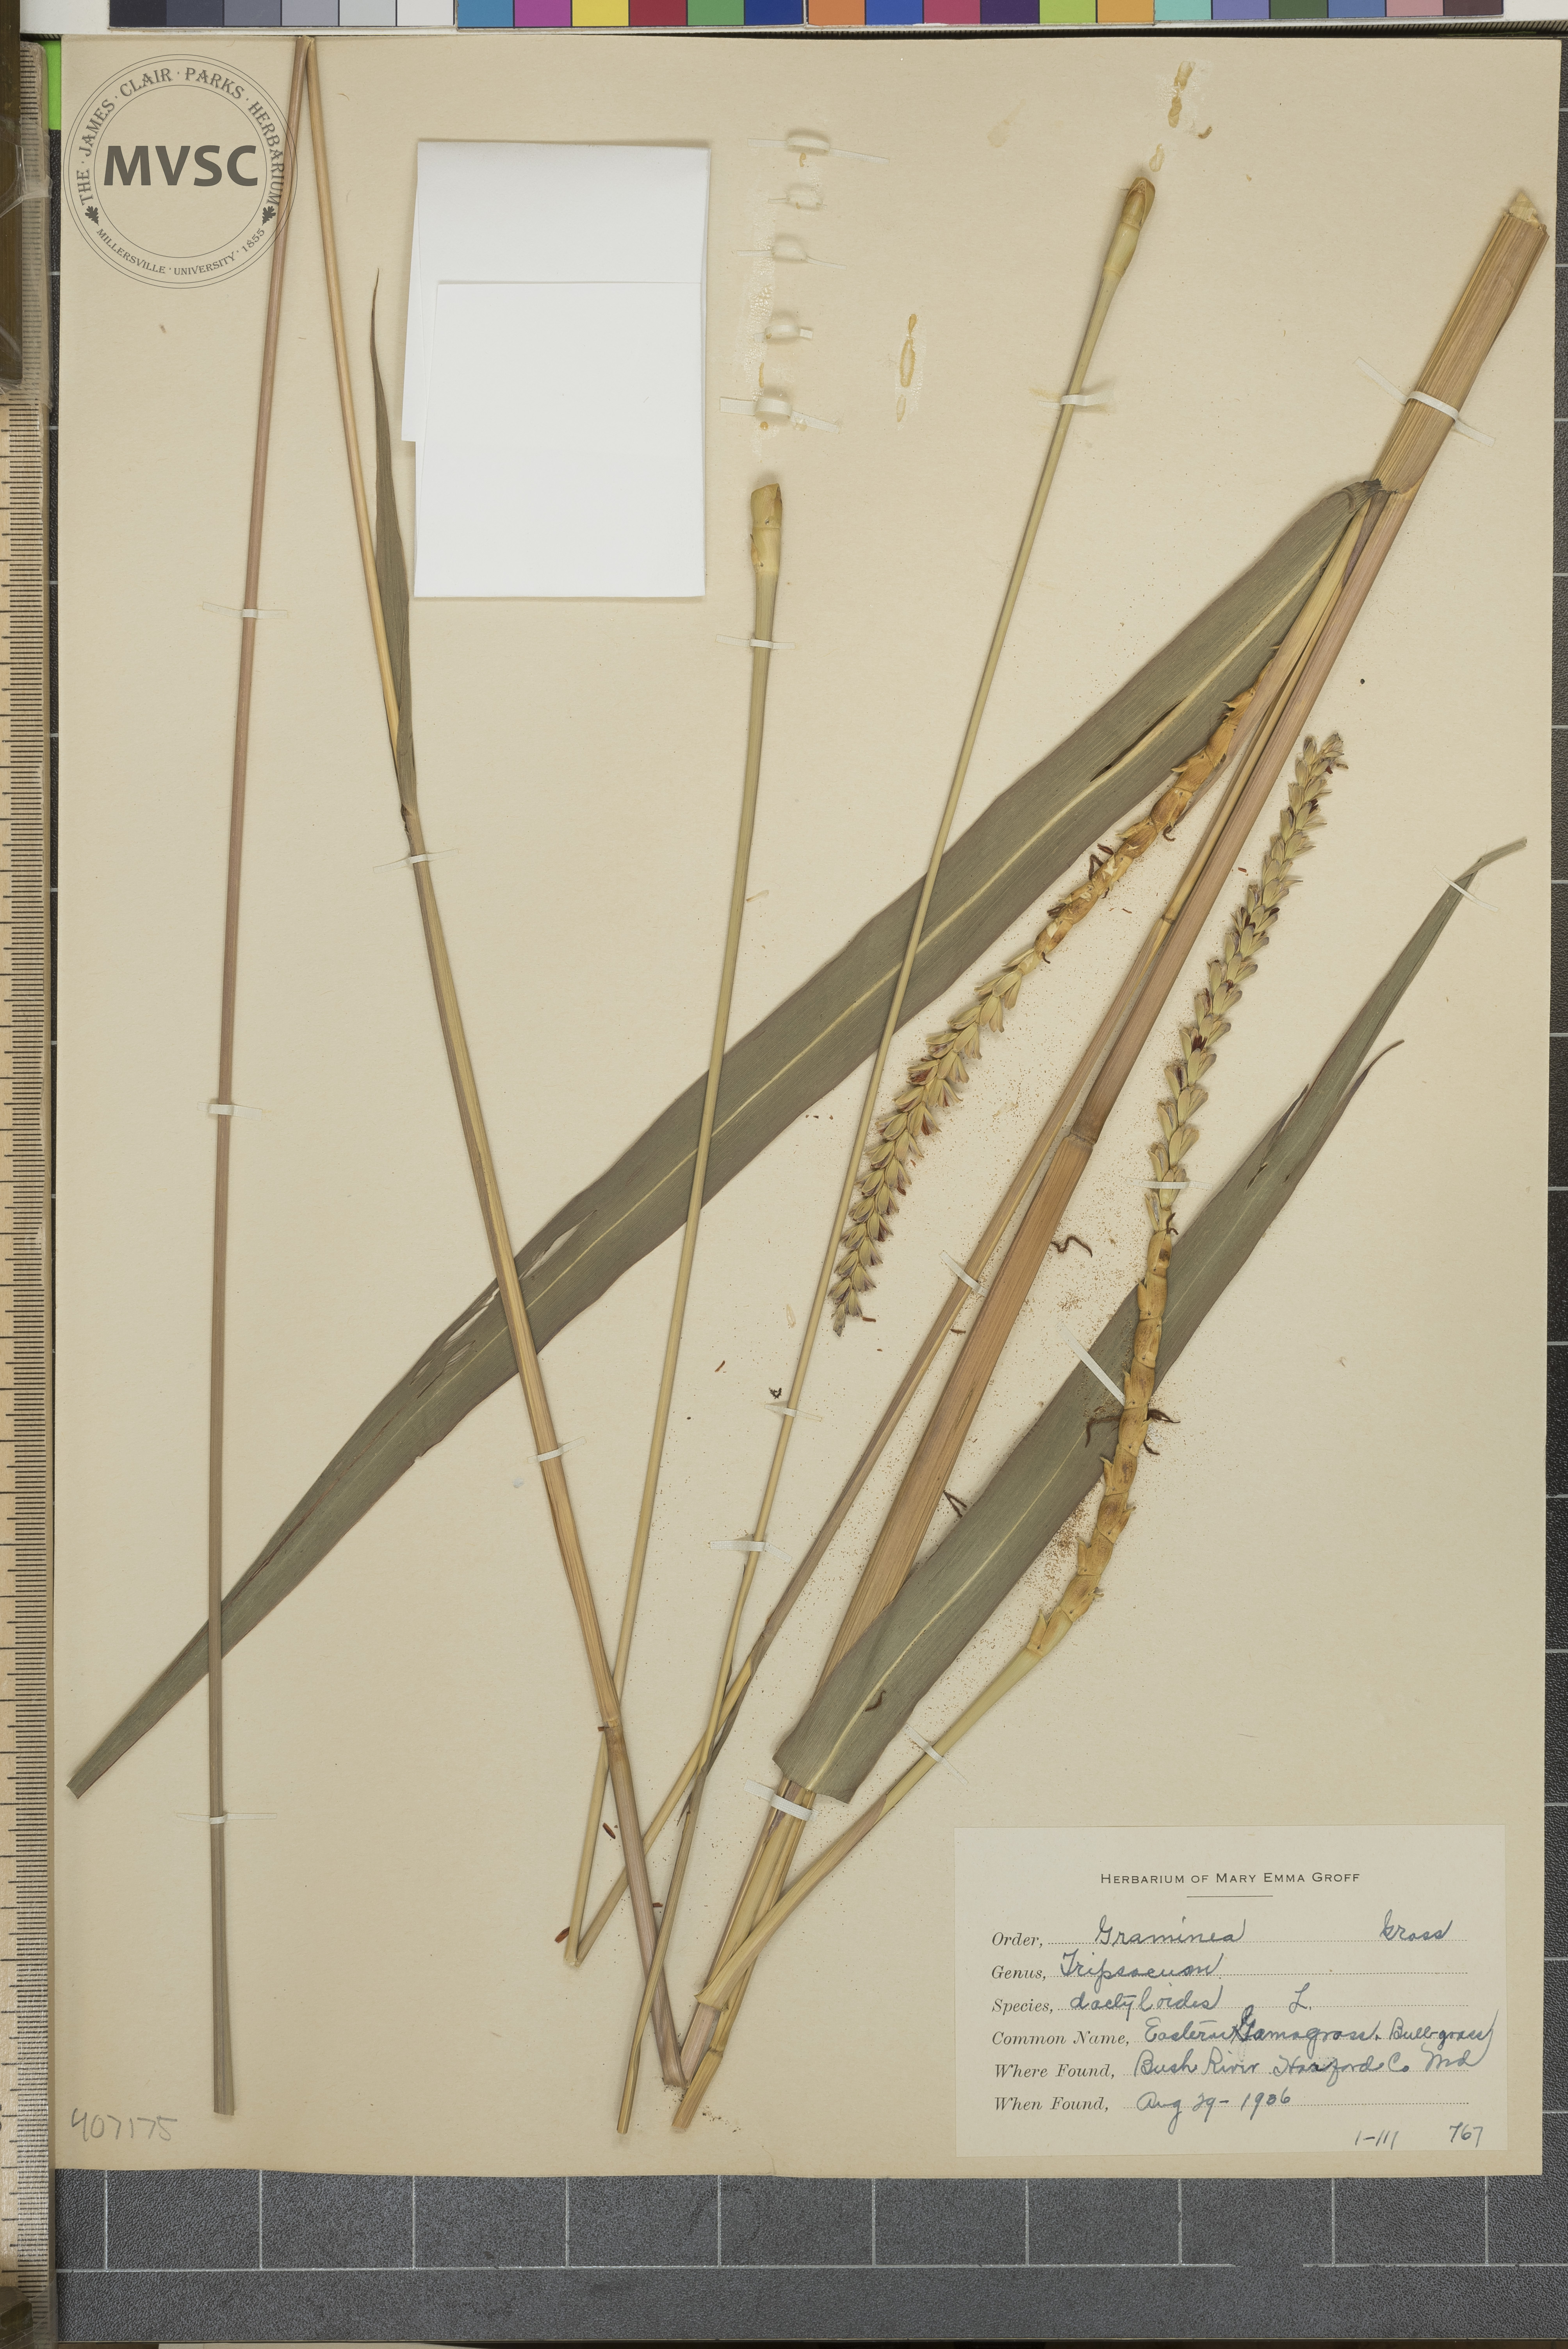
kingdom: Plantae
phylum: Tracheophyta
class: Liliopsida
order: Poales
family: Poaceae
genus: Tripsacum
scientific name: Tripsacum dactyloides
